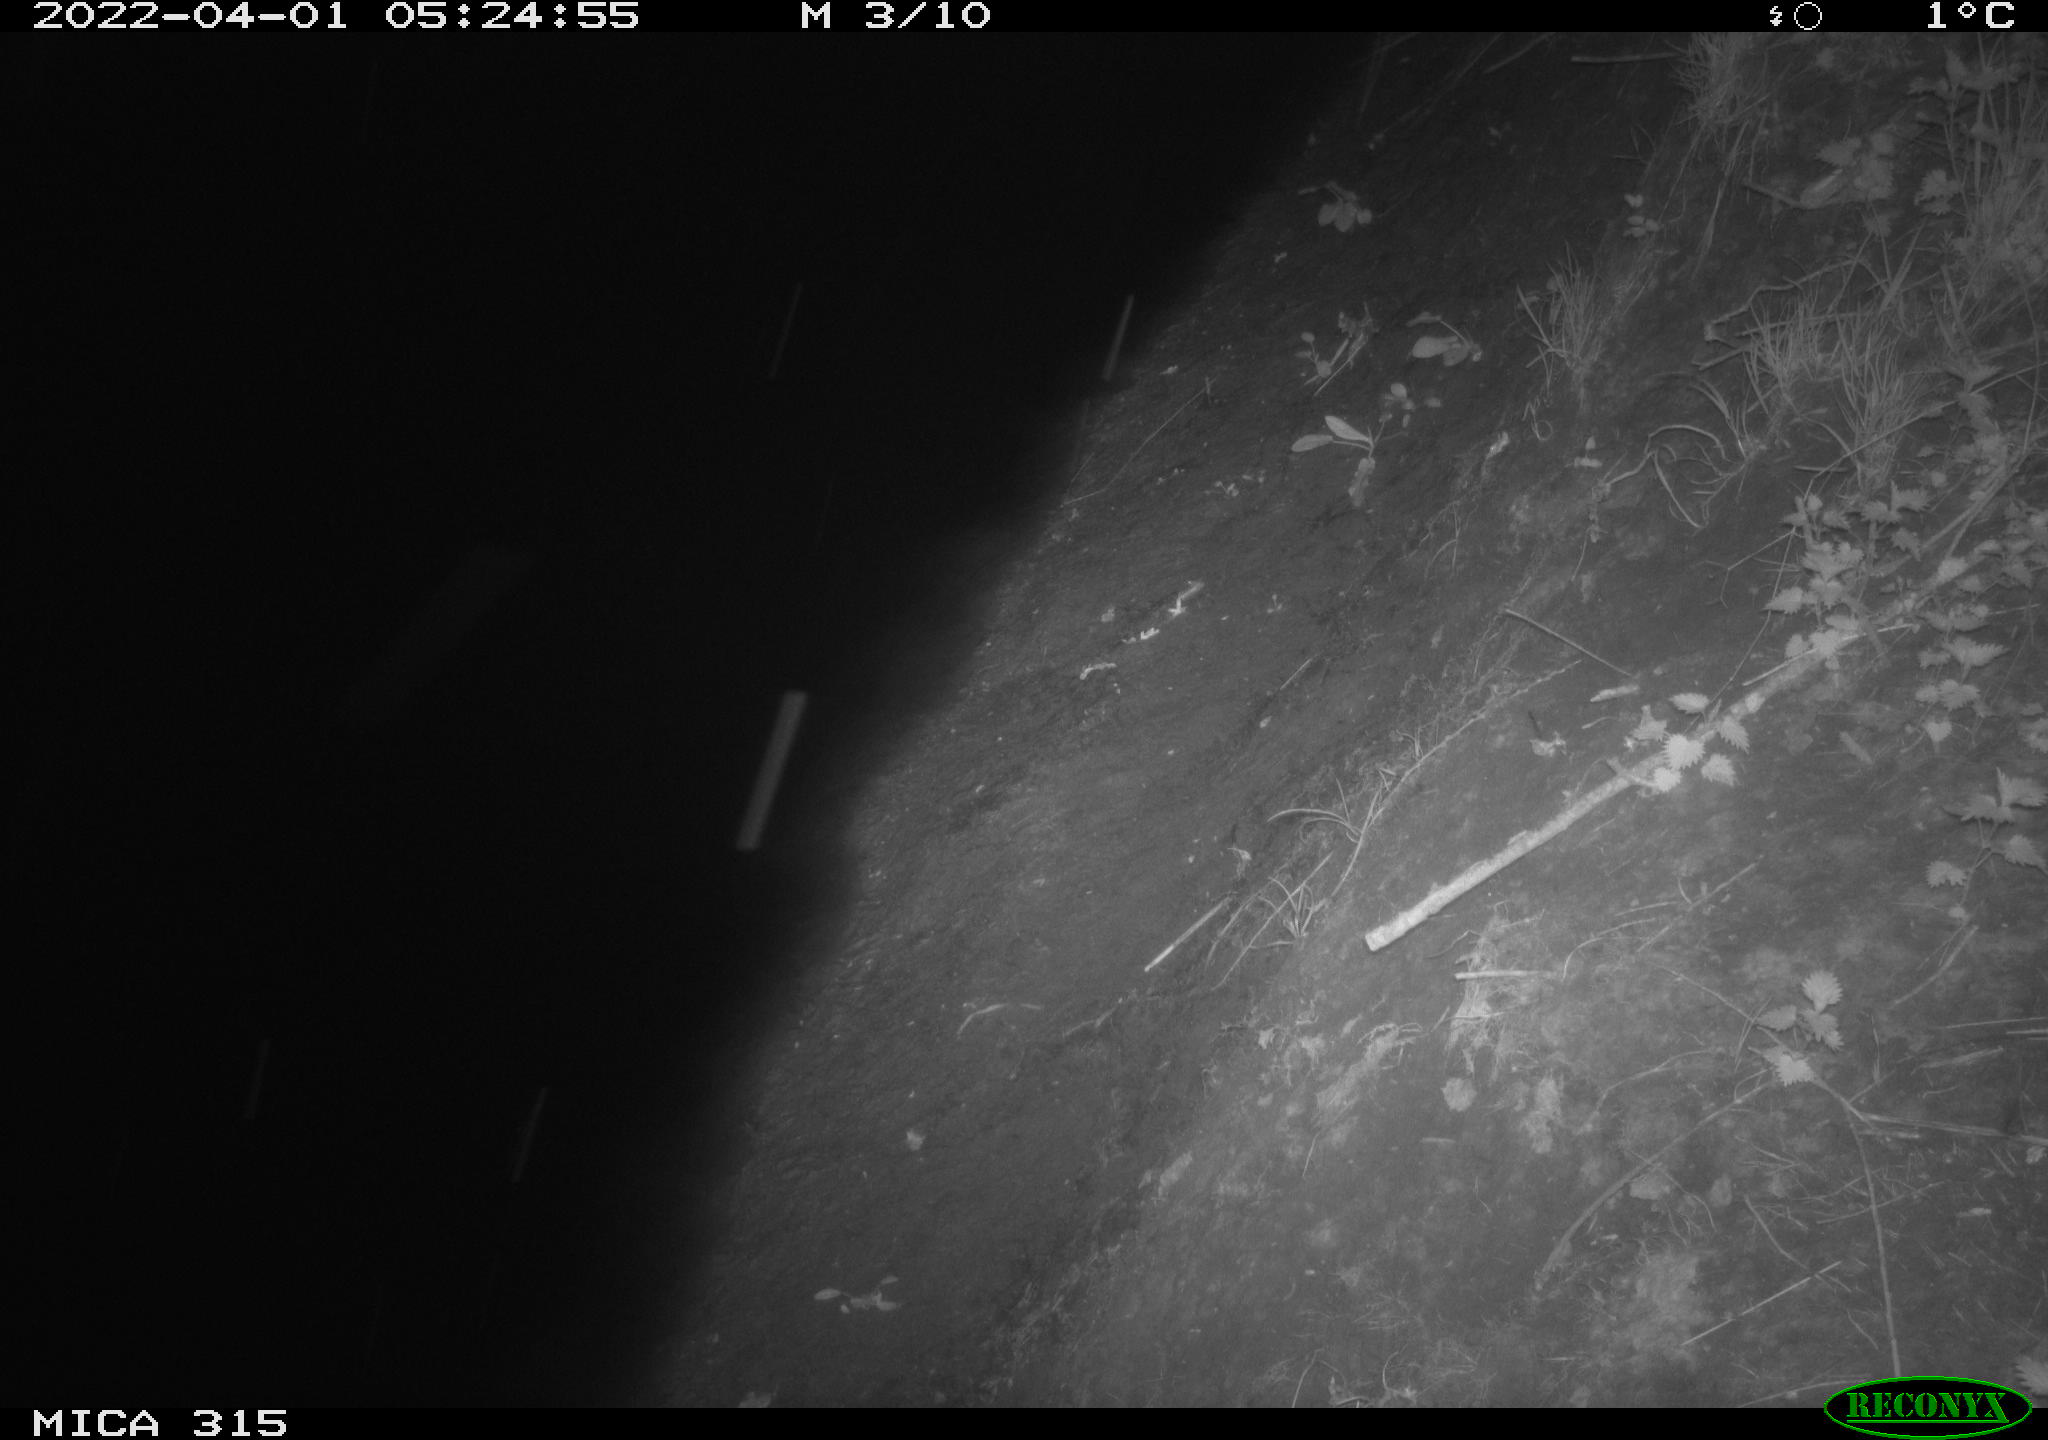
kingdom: Animalia
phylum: Chordata
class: Mammalia
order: Rodentia
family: Muridae
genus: Rattus
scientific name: Rattus norvegicus
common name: Brown rat
